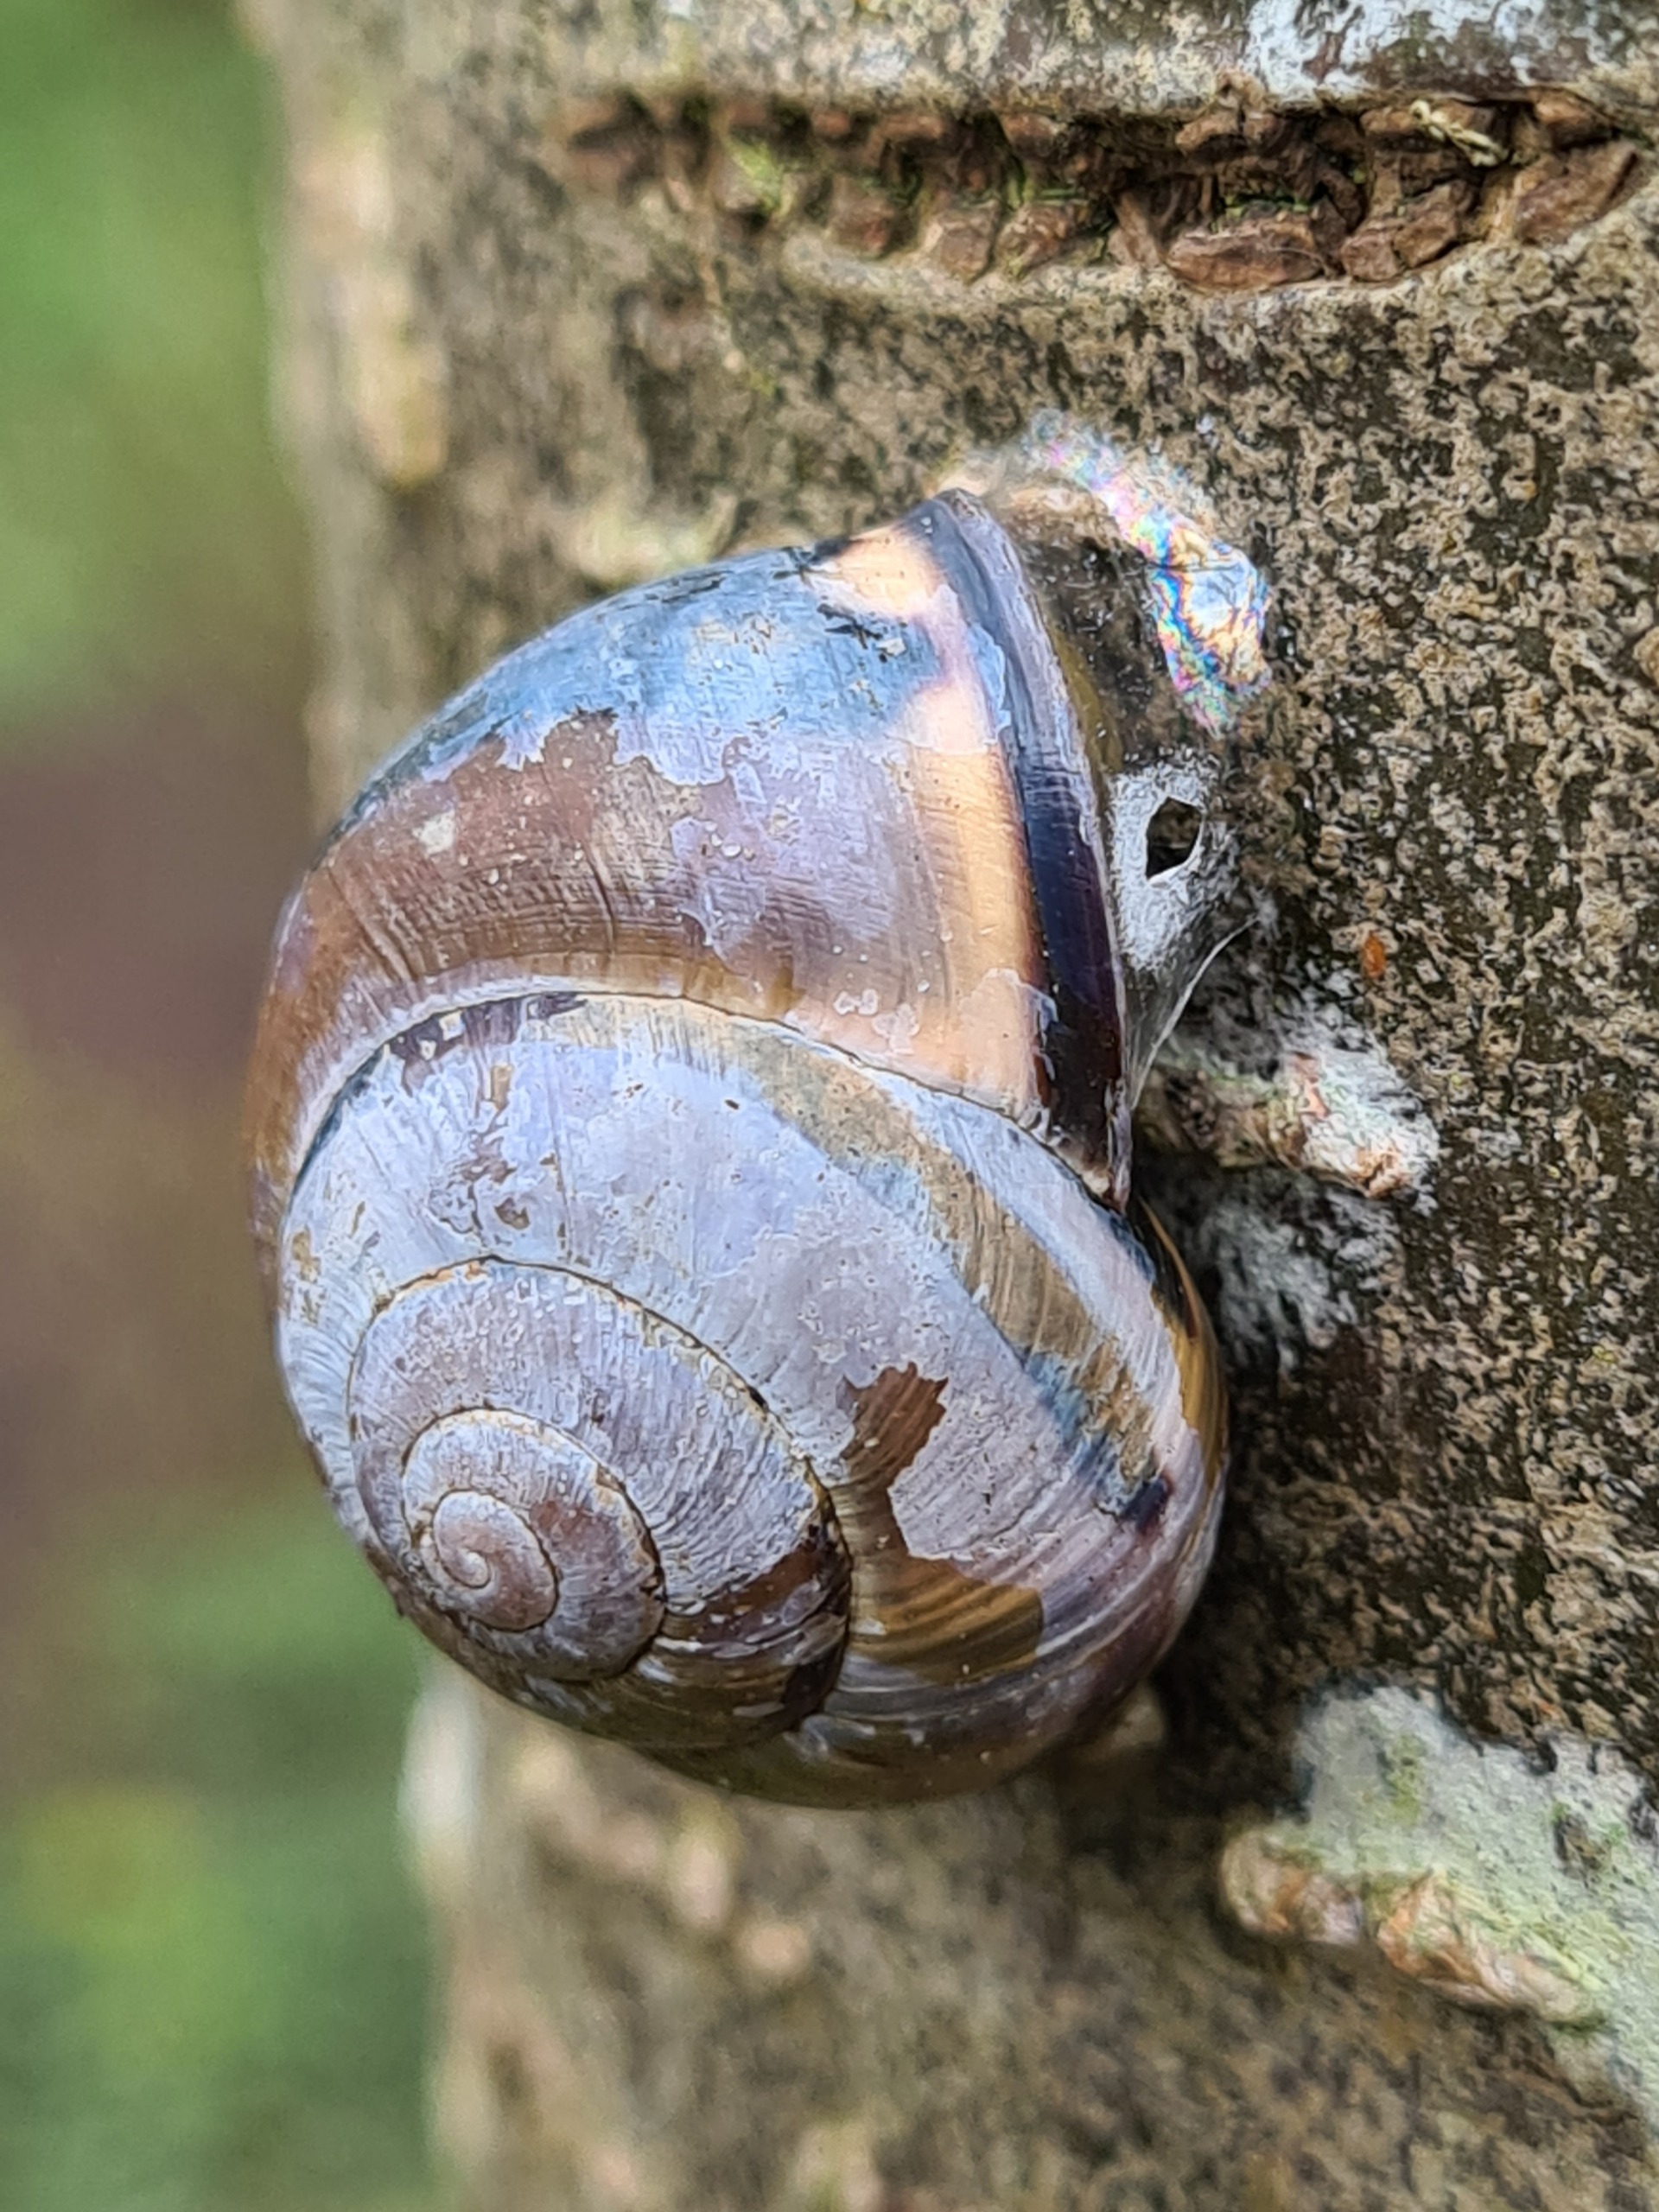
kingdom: Animalia
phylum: Mollusca
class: Gastropoda
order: Stylommatophora
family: Helicidae
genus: Cepaea
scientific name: Cepaea nemoralis
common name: Lundsnegl
